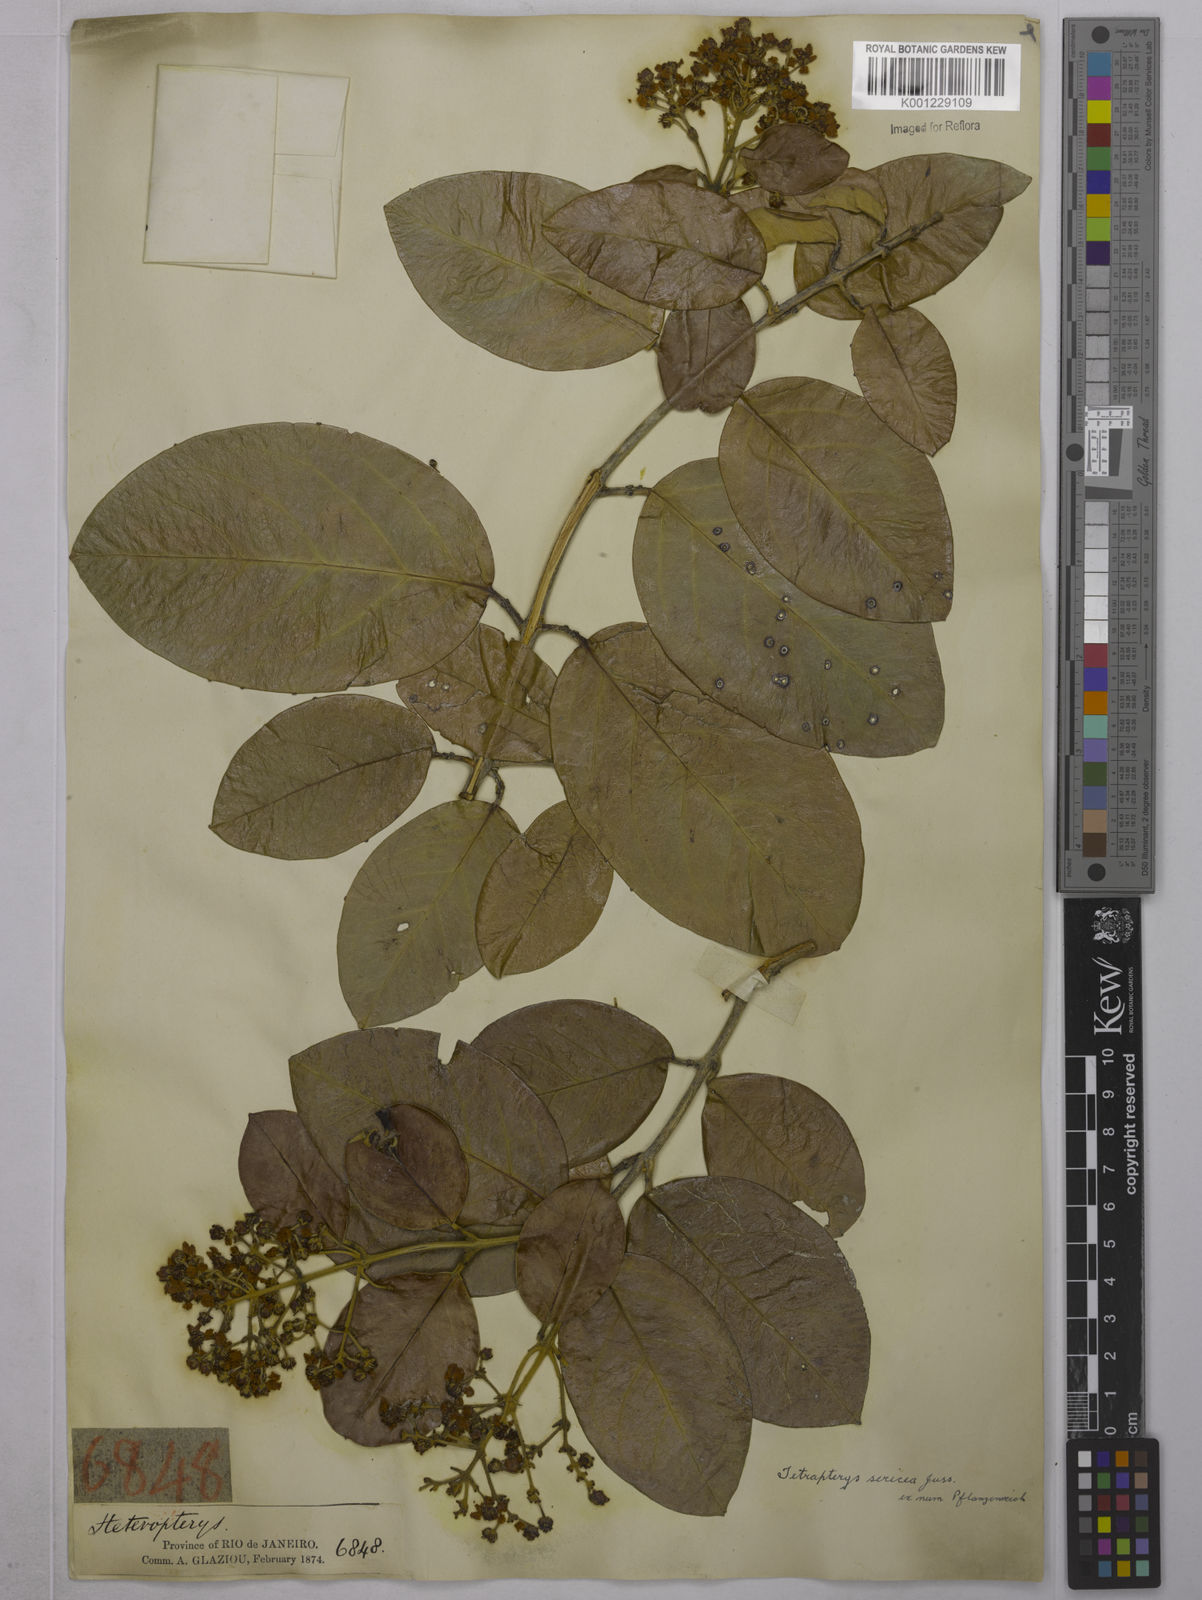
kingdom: Plantae
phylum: Tracheophyta
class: Magnoliopsida
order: Malpighiales
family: Malpighiaceae
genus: Niedenzuella
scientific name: Niedenzuella sericea
